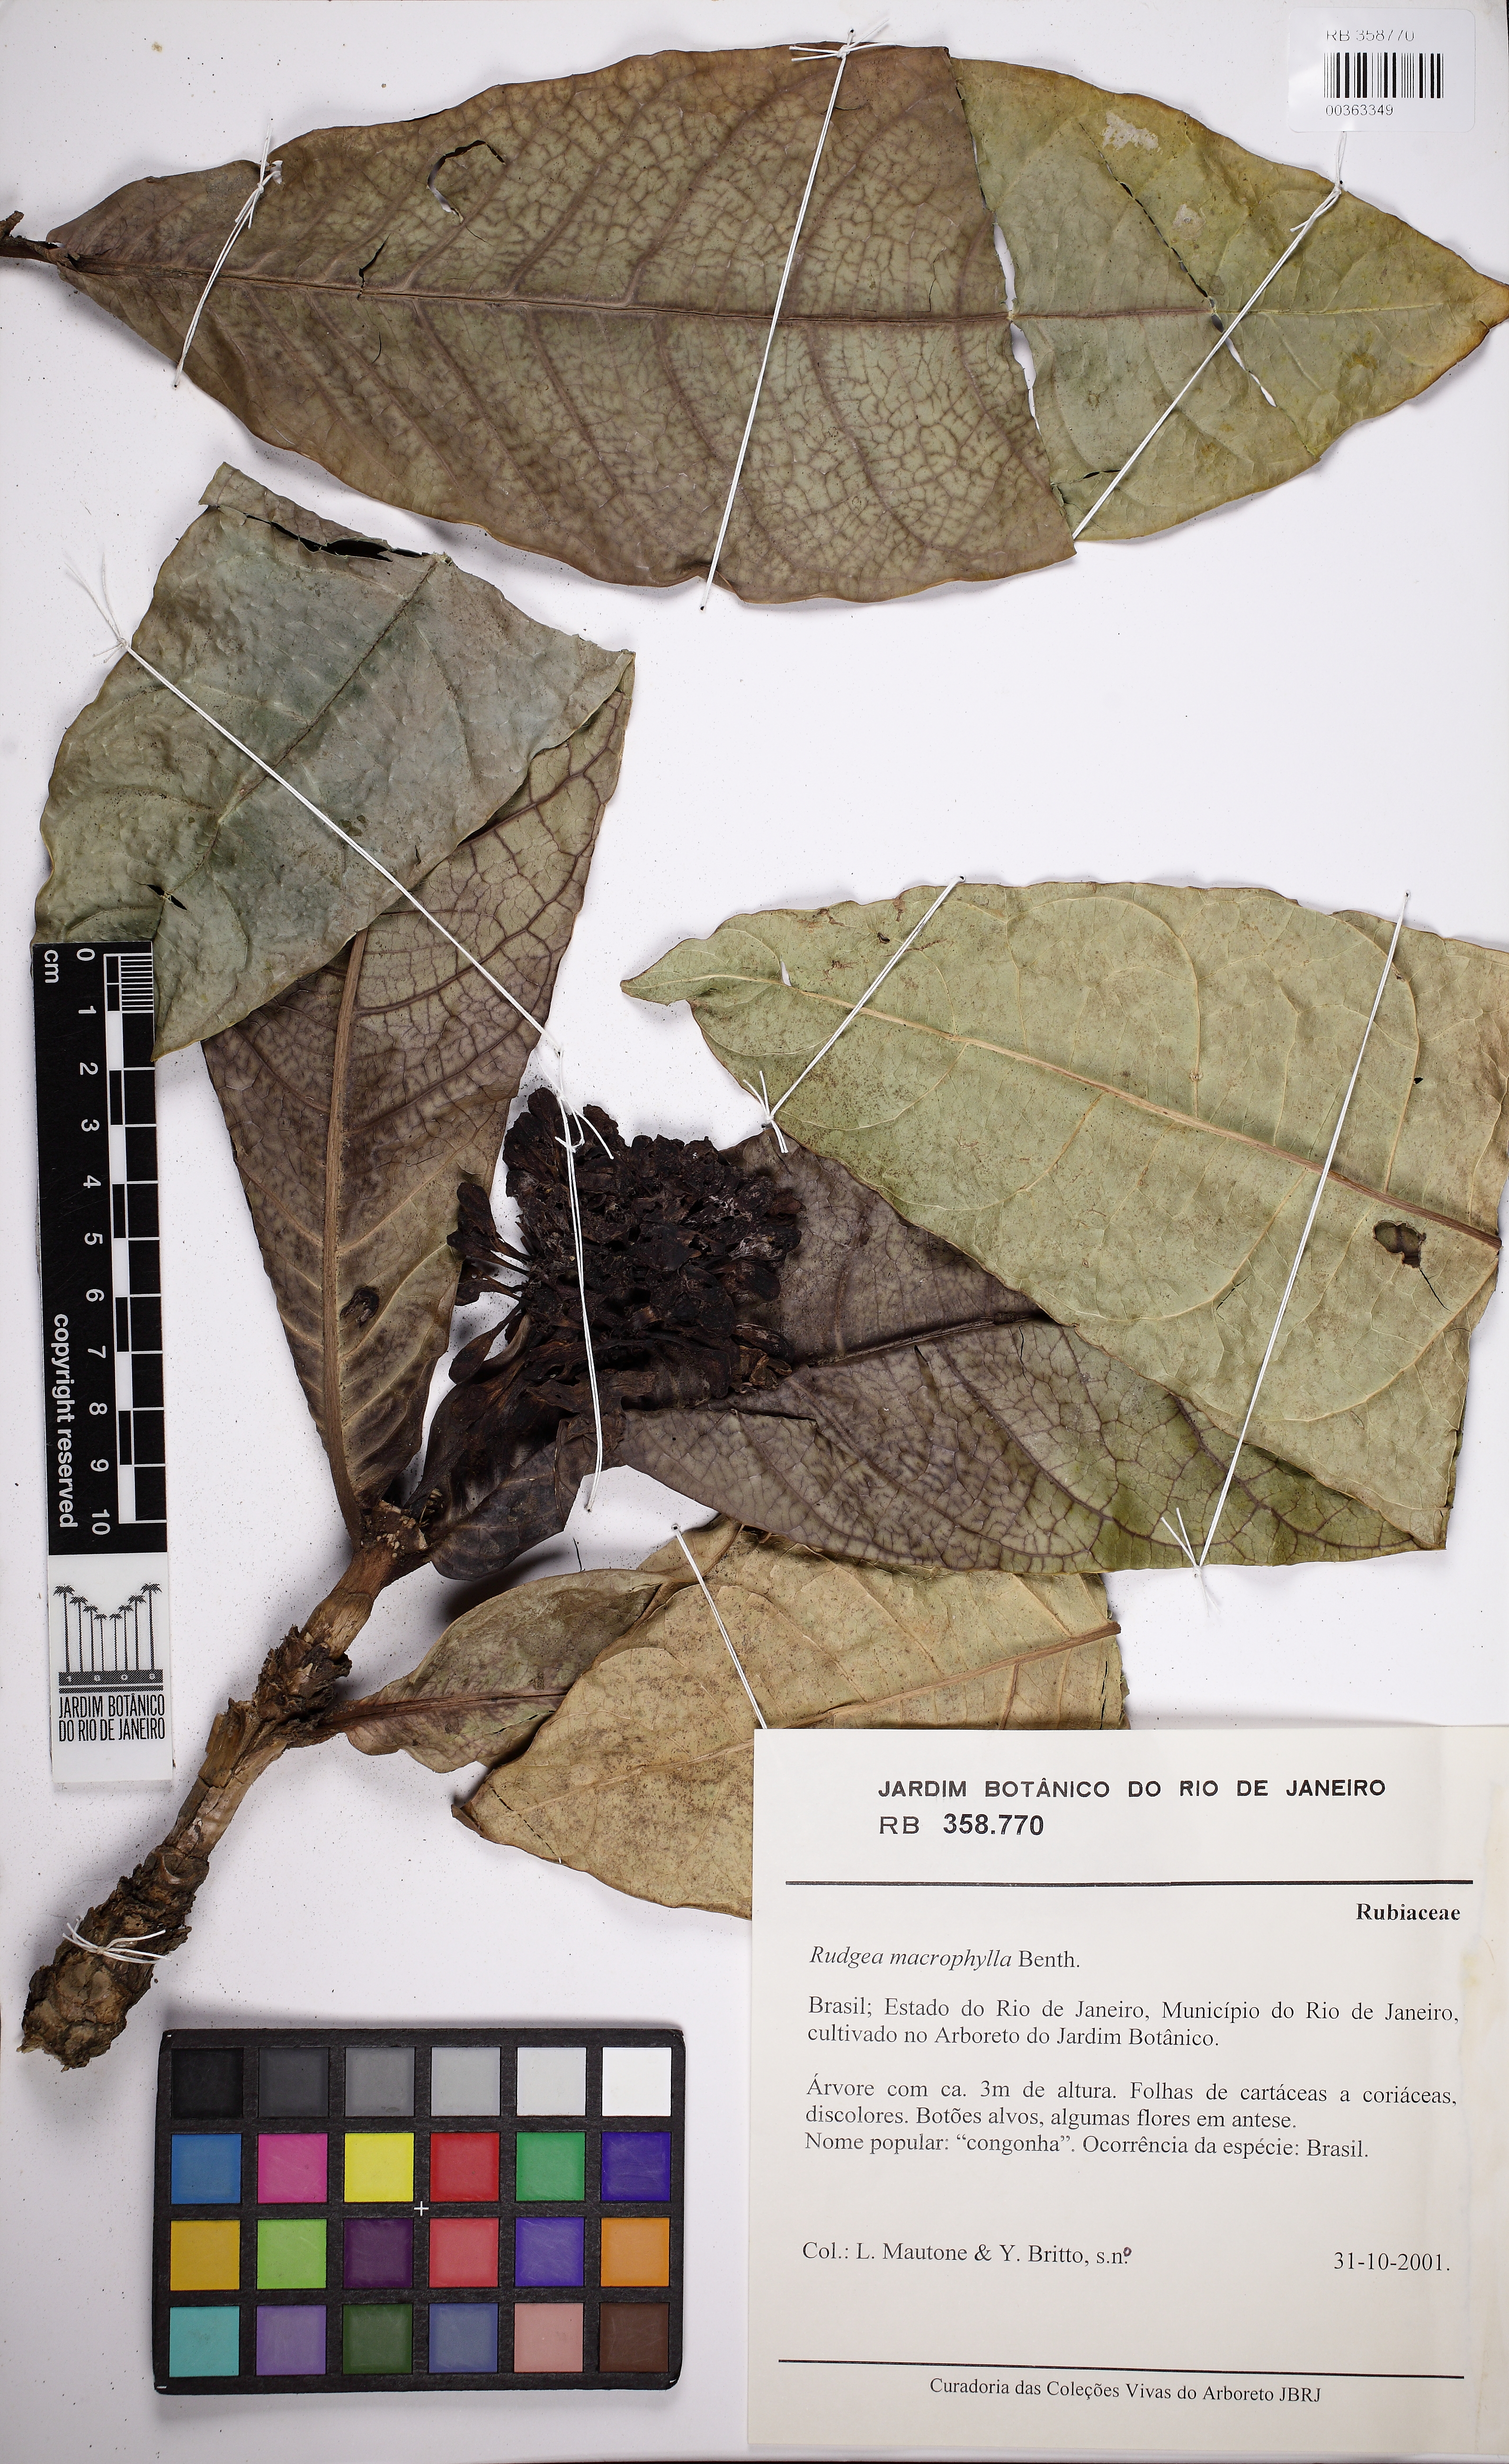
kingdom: Plantae
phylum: Tracheophyta
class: Magnoliopsida
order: Gentianales
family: Rubiaceae
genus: Rudgea
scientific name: Rudgea macrophylla
